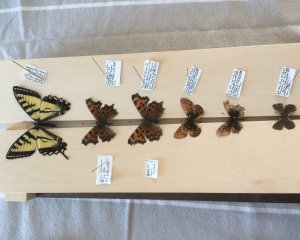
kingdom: Animalia
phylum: Arthropoda
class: Insecta
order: Lepidoptera
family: Papilionidae
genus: Pterourus
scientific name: Pterourus canadensis
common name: Canadian Tiger Swallowtail
